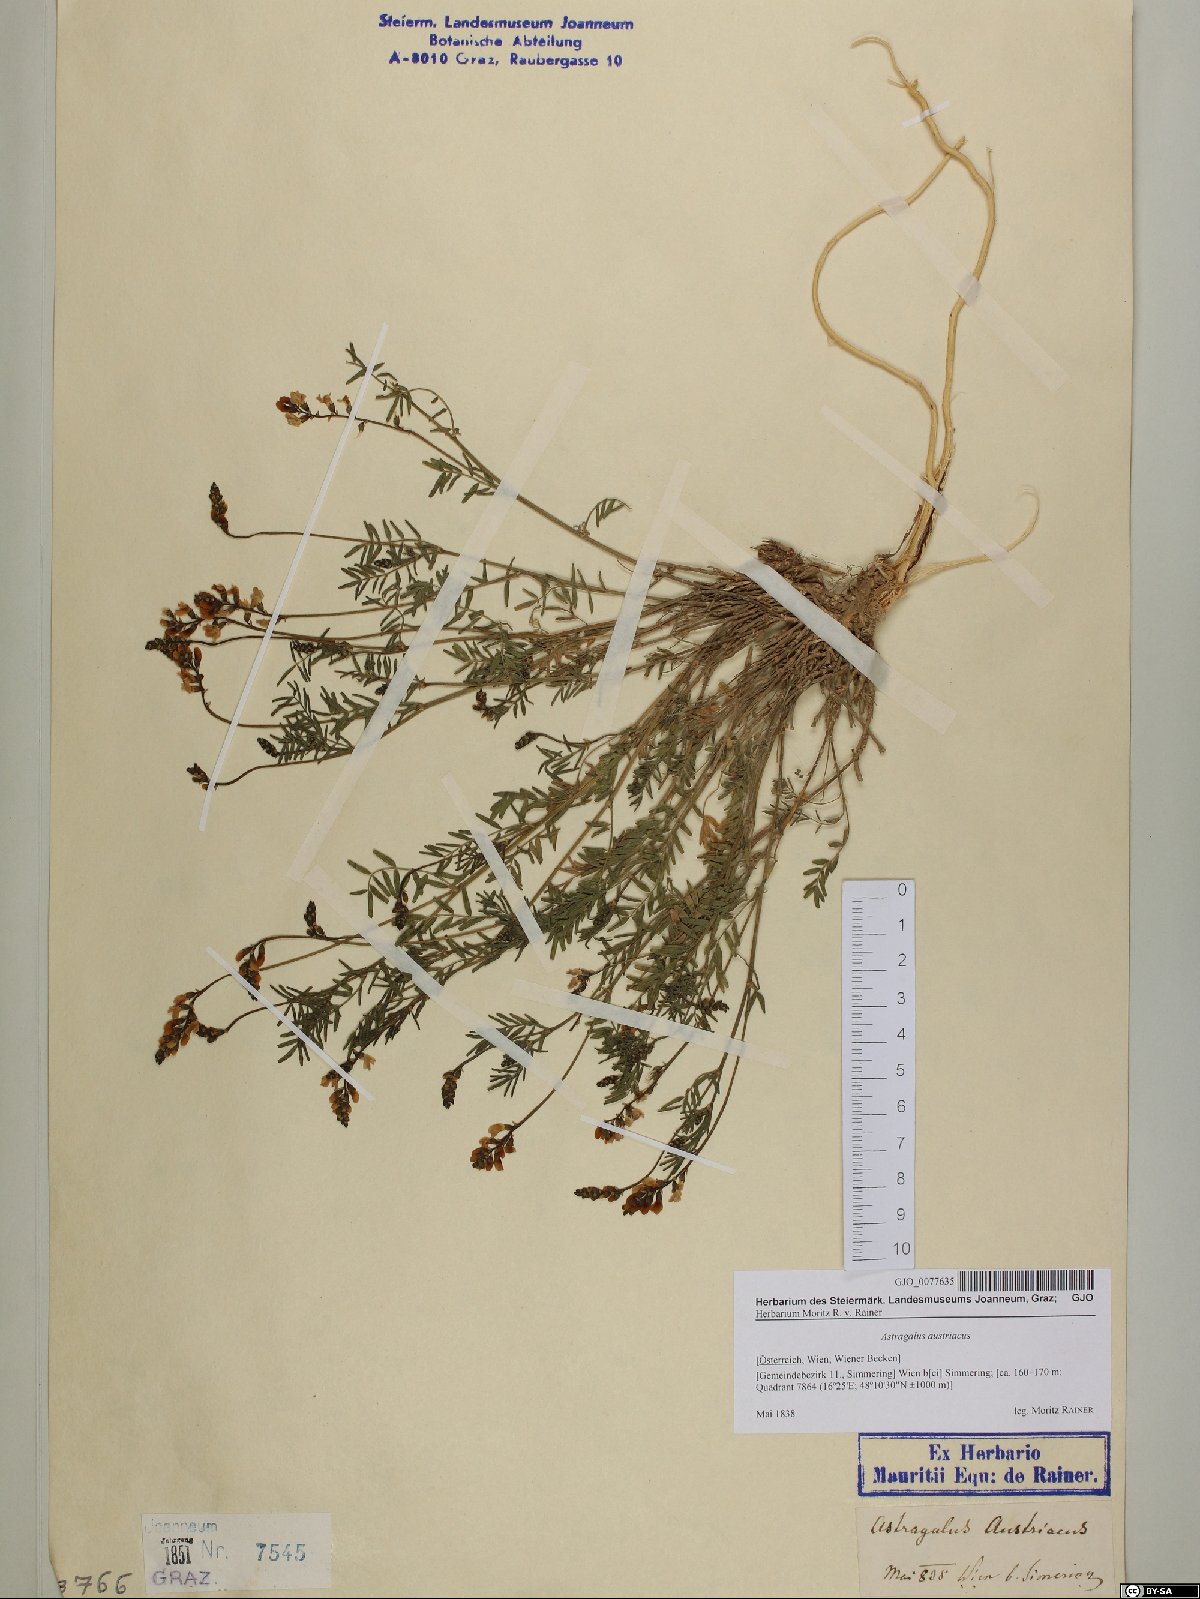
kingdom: Plantae
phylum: Tracheophyta
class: Magnoliopsida
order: Fabales
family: Fabaceae
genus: Astragalus
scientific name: Astragalus austriacus
